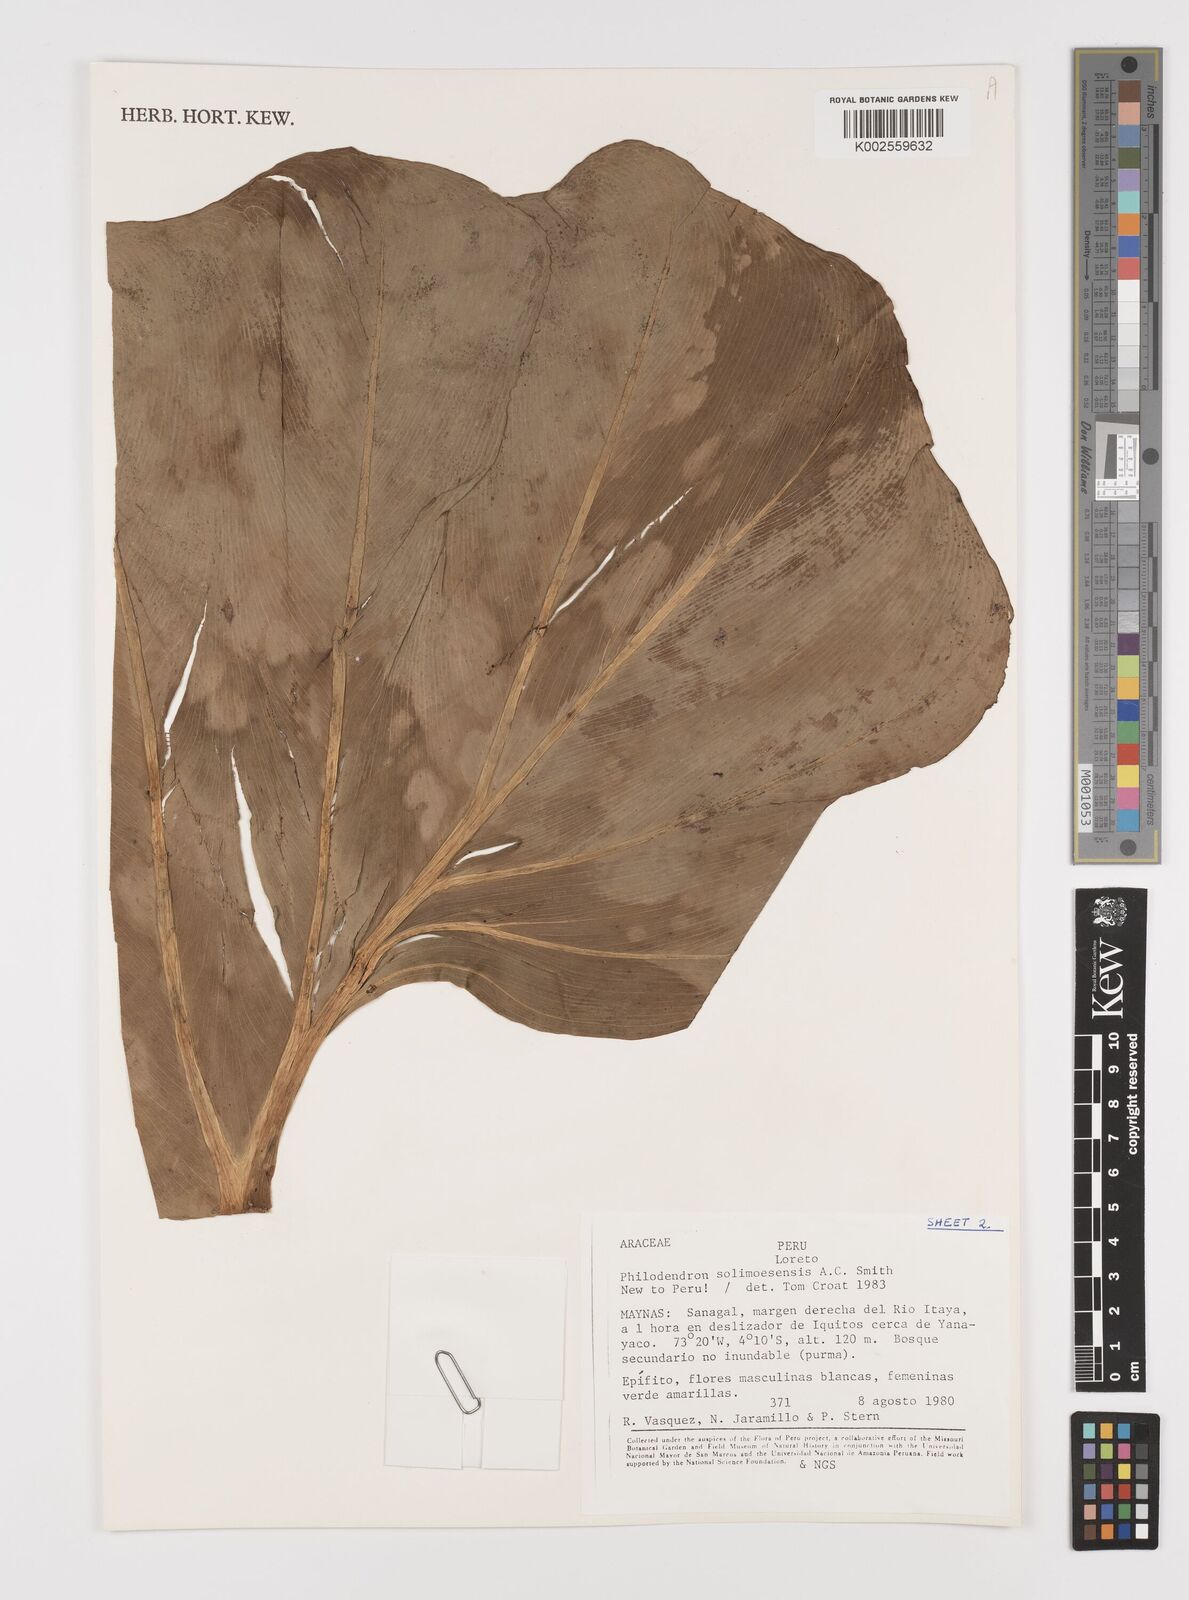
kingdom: Plantae
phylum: Tracheophyta
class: Liliopsida
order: Alismatales
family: Araceae
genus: Thaumatophyllum
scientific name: Thaumatophyllum solimoesense
